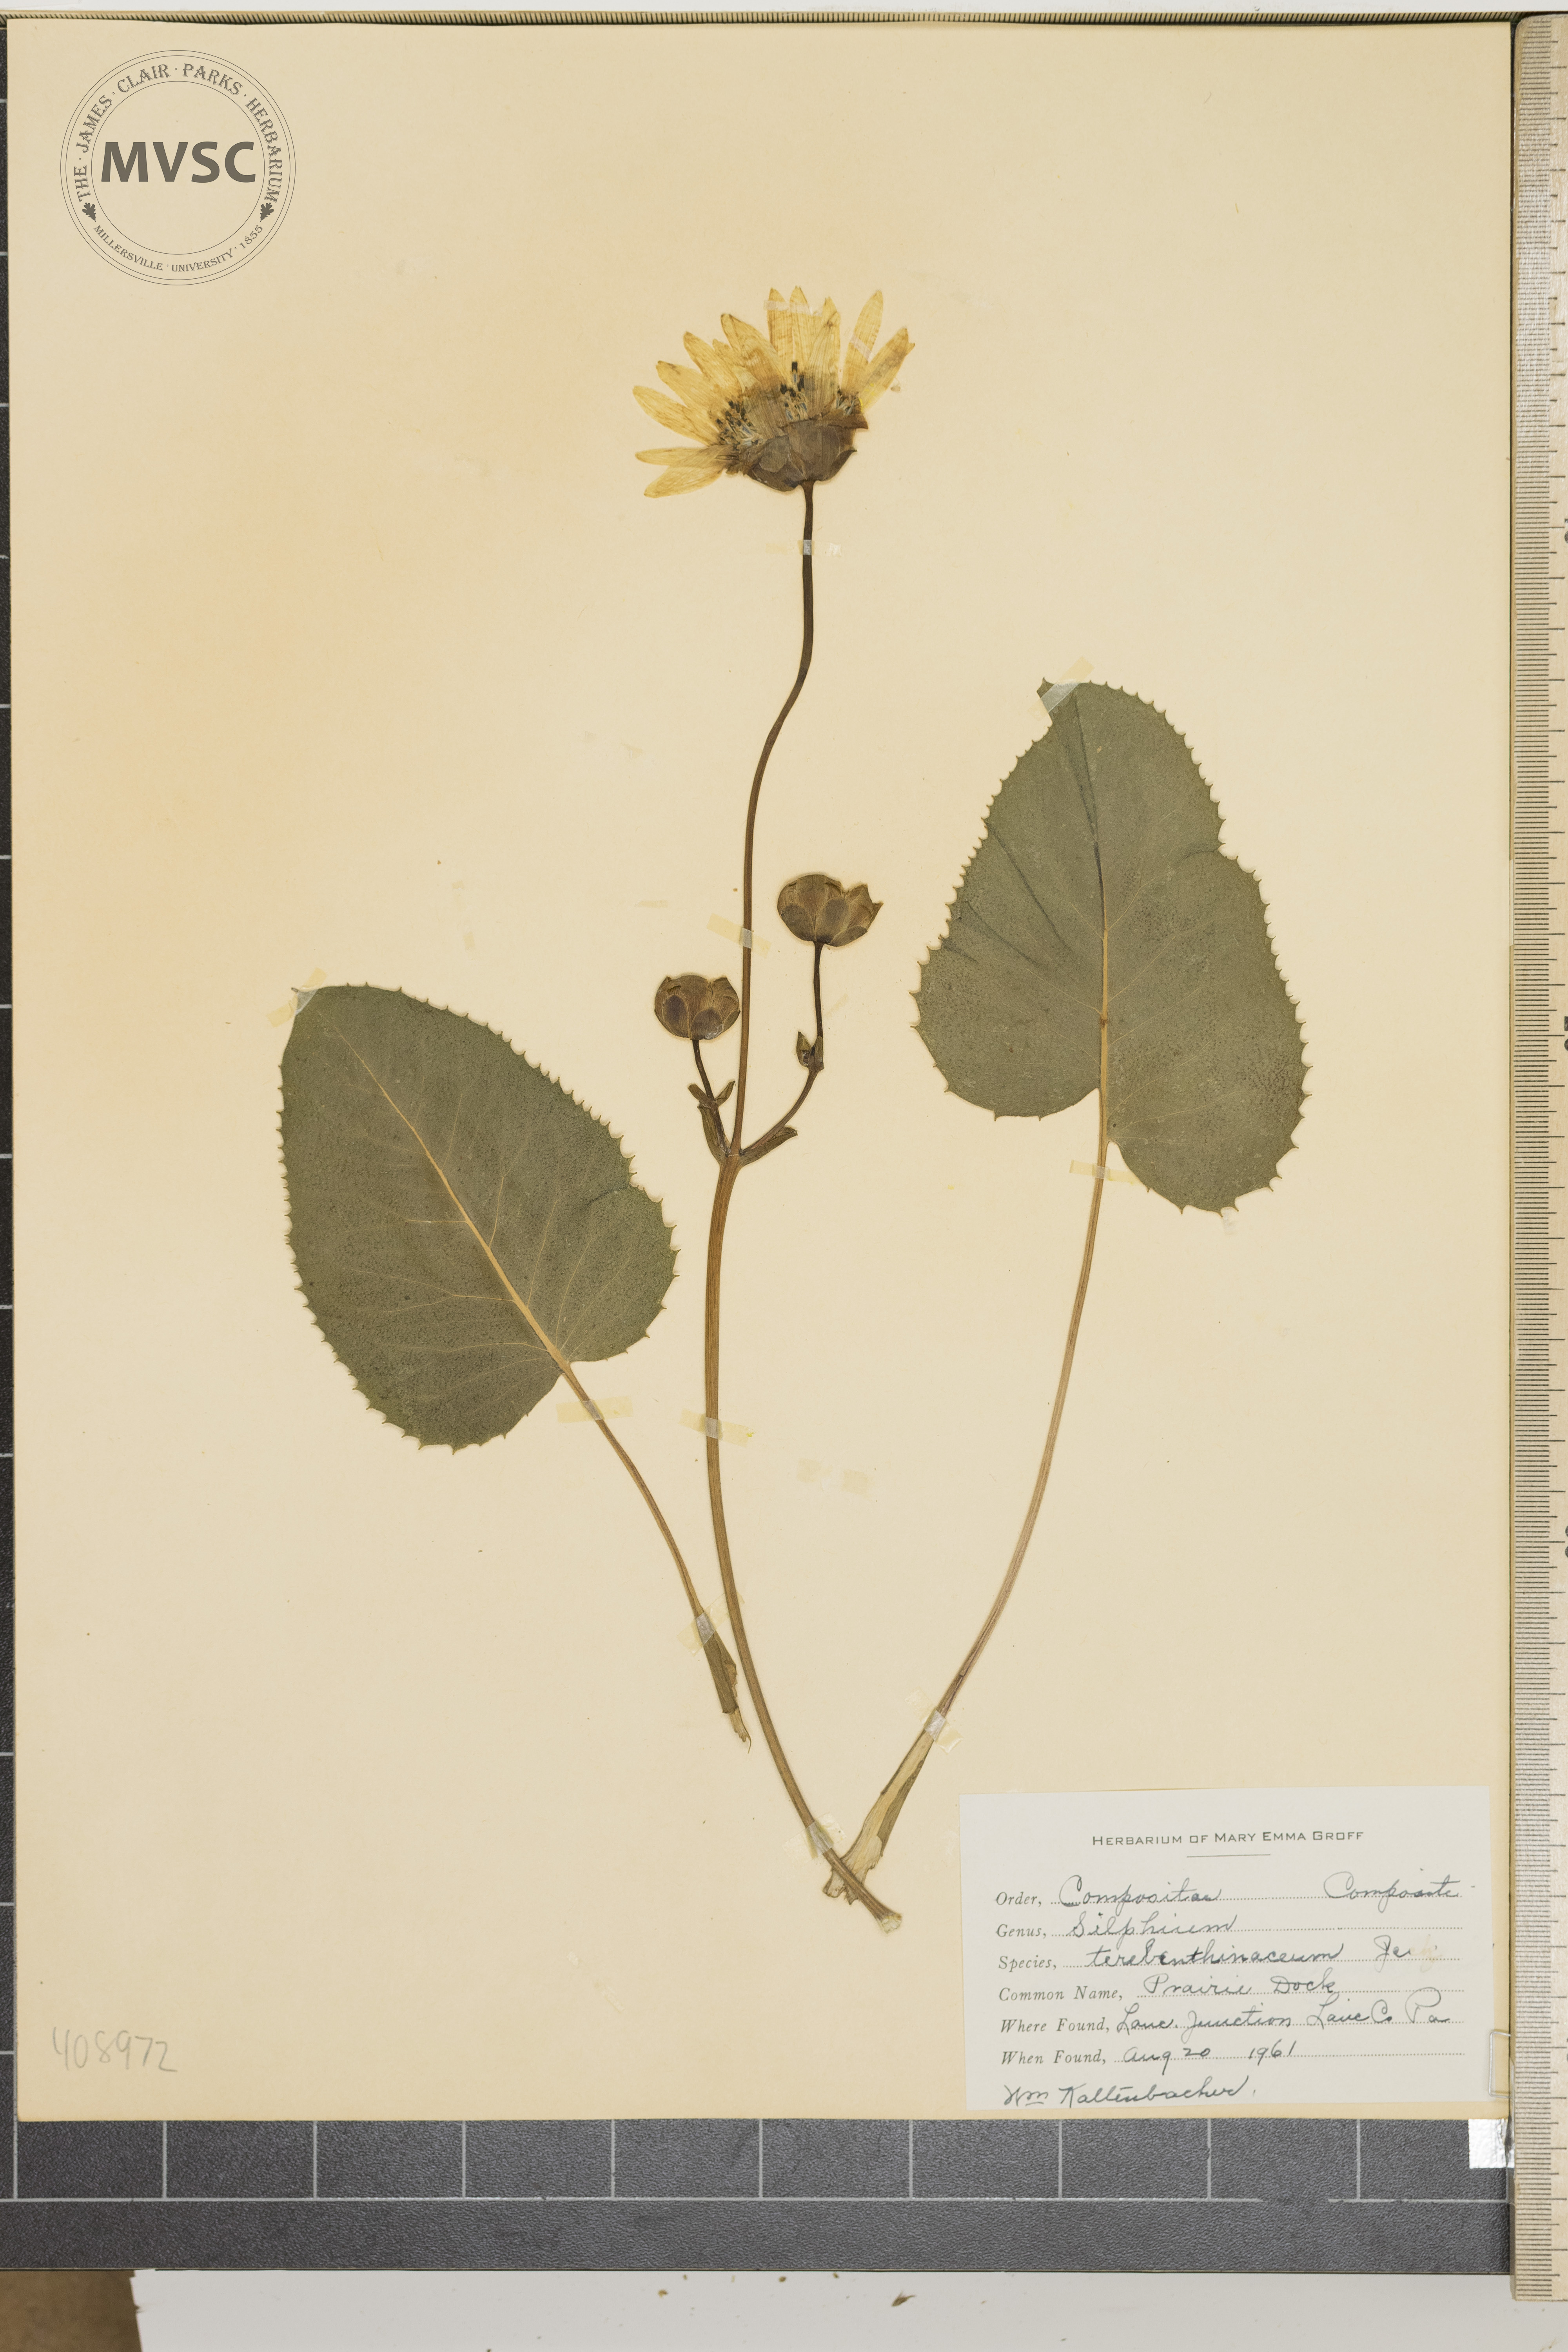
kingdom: Plantae
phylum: Tracheophyta
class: Magnoliopsida
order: Asterales
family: Asteraceae
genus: Silphium
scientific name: Silphium terebinthinaceum
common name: prairie dock
